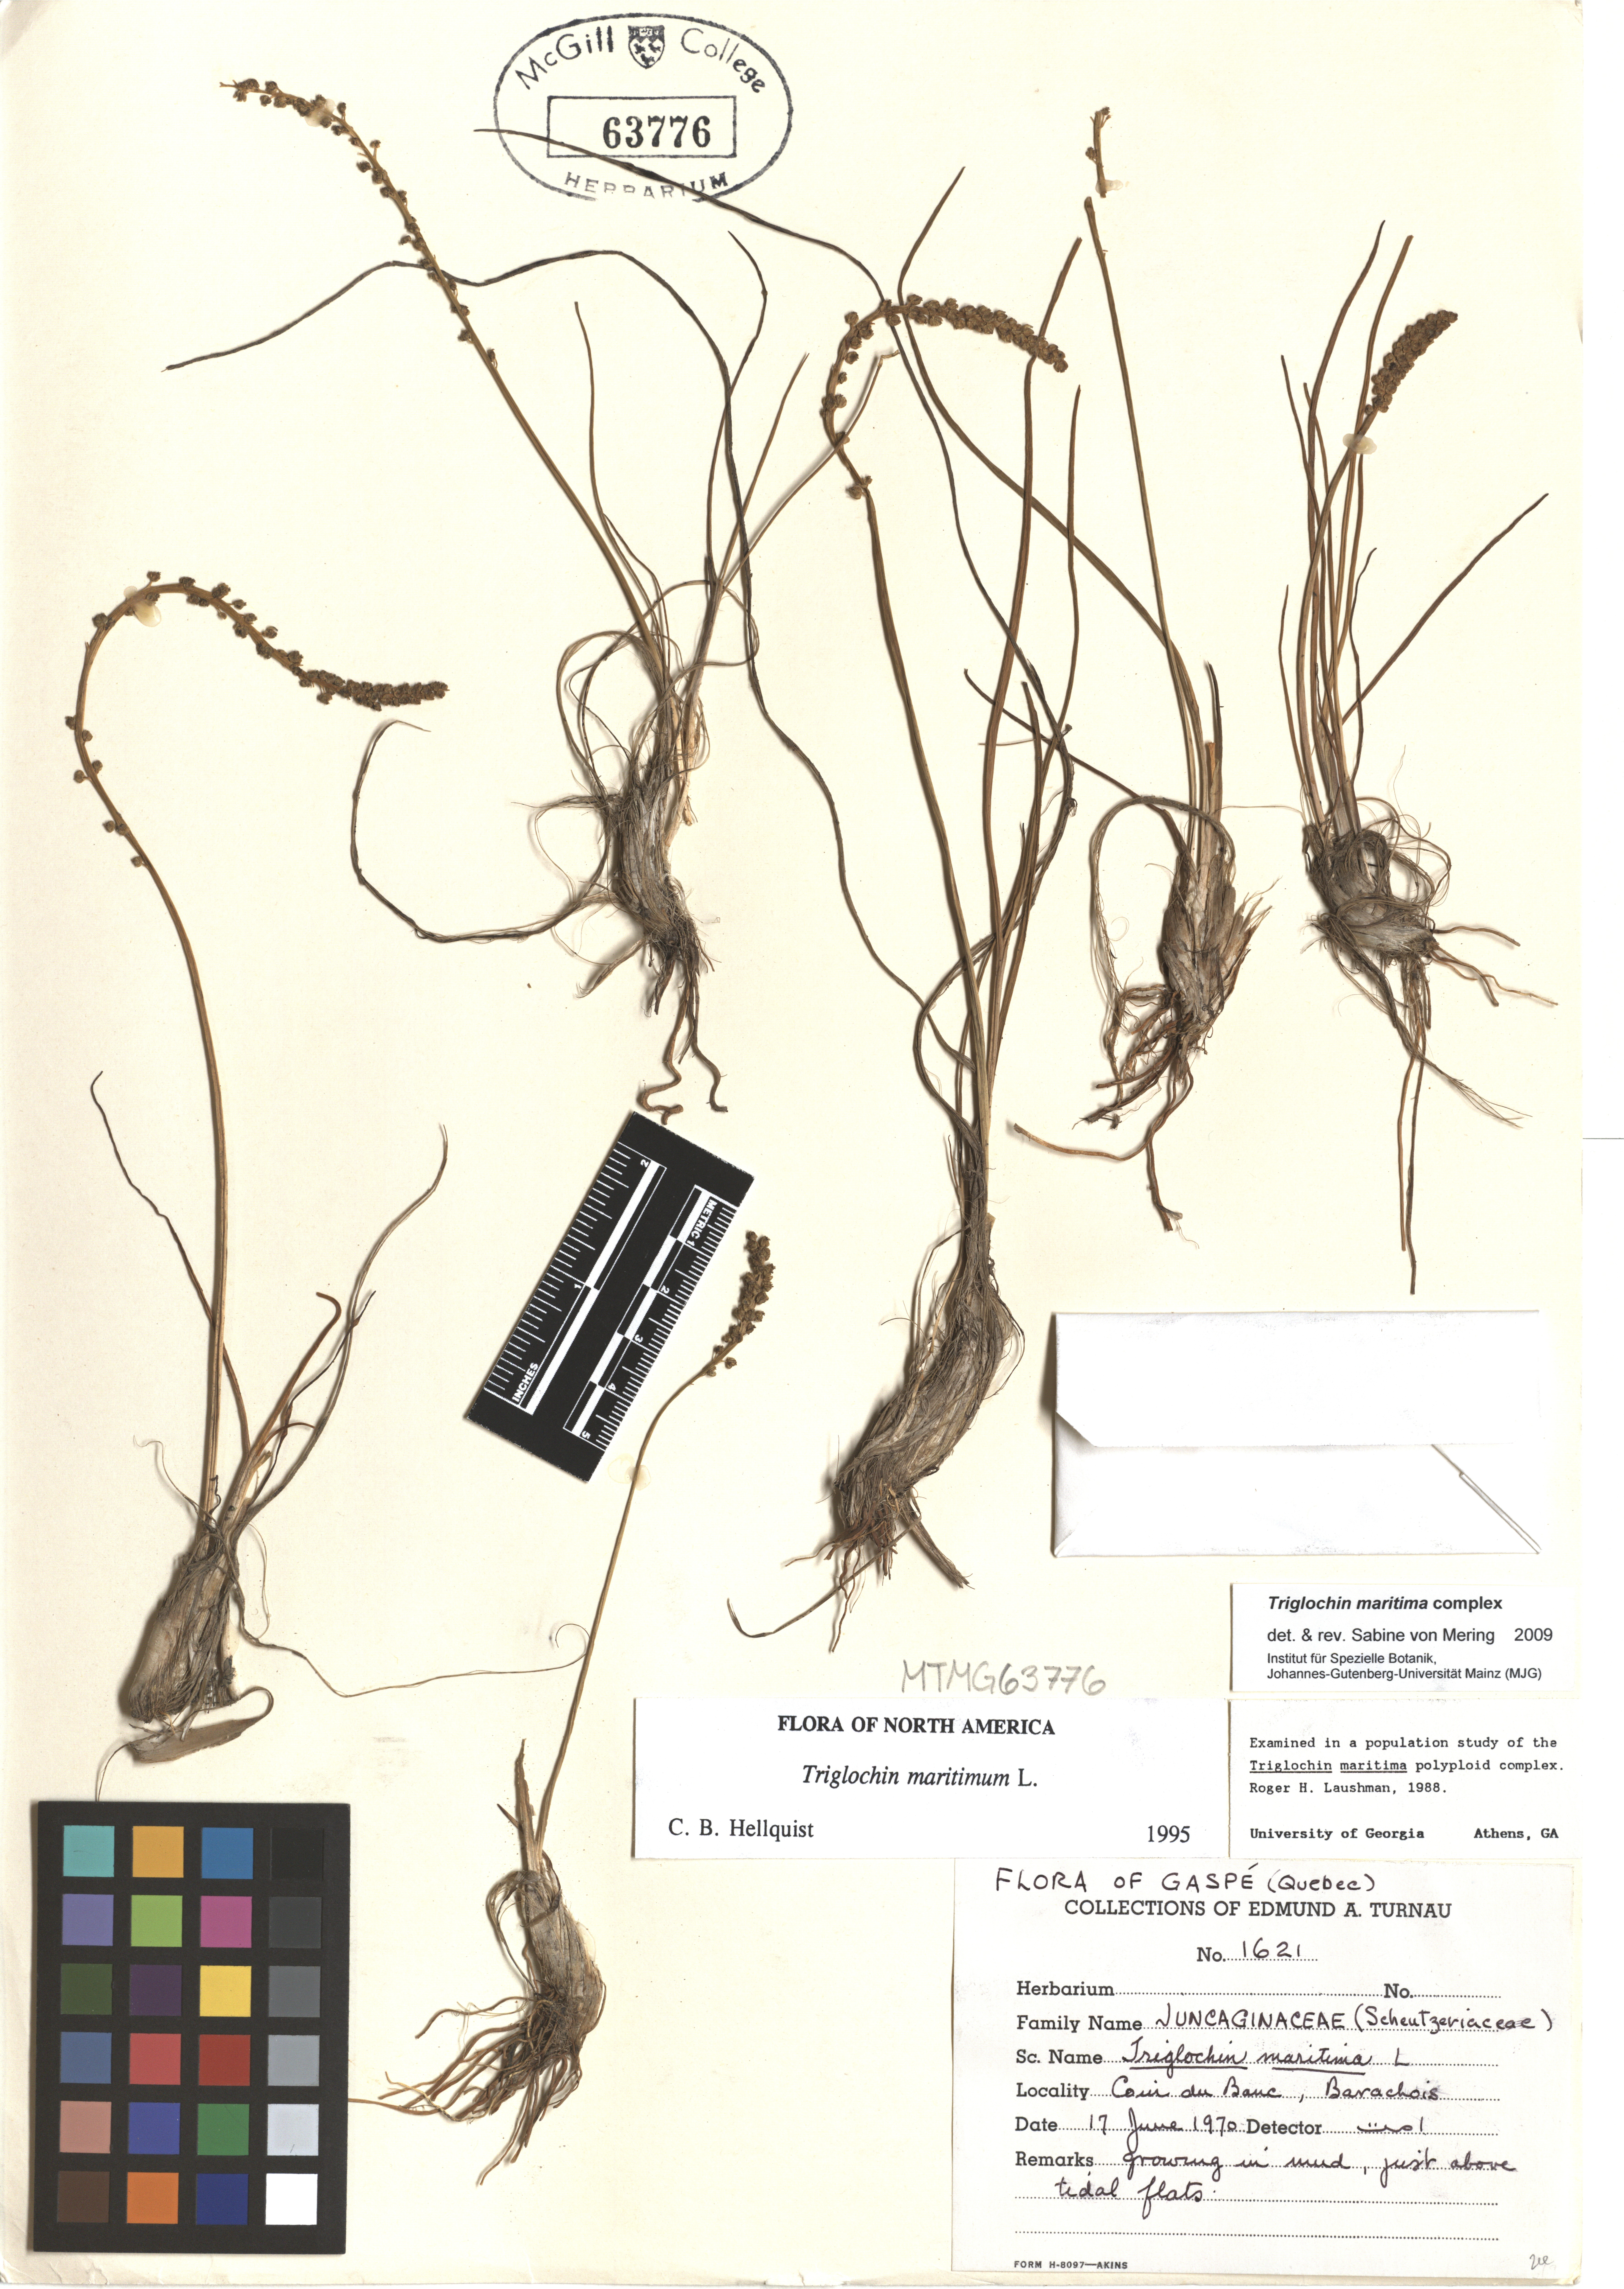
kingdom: Plantae
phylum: Tracheophyta
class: Liliopsida
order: Alismatales
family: Juncaginaceae
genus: Triglochin
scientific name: Triglochin maritima
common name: Sea arrowgrass
